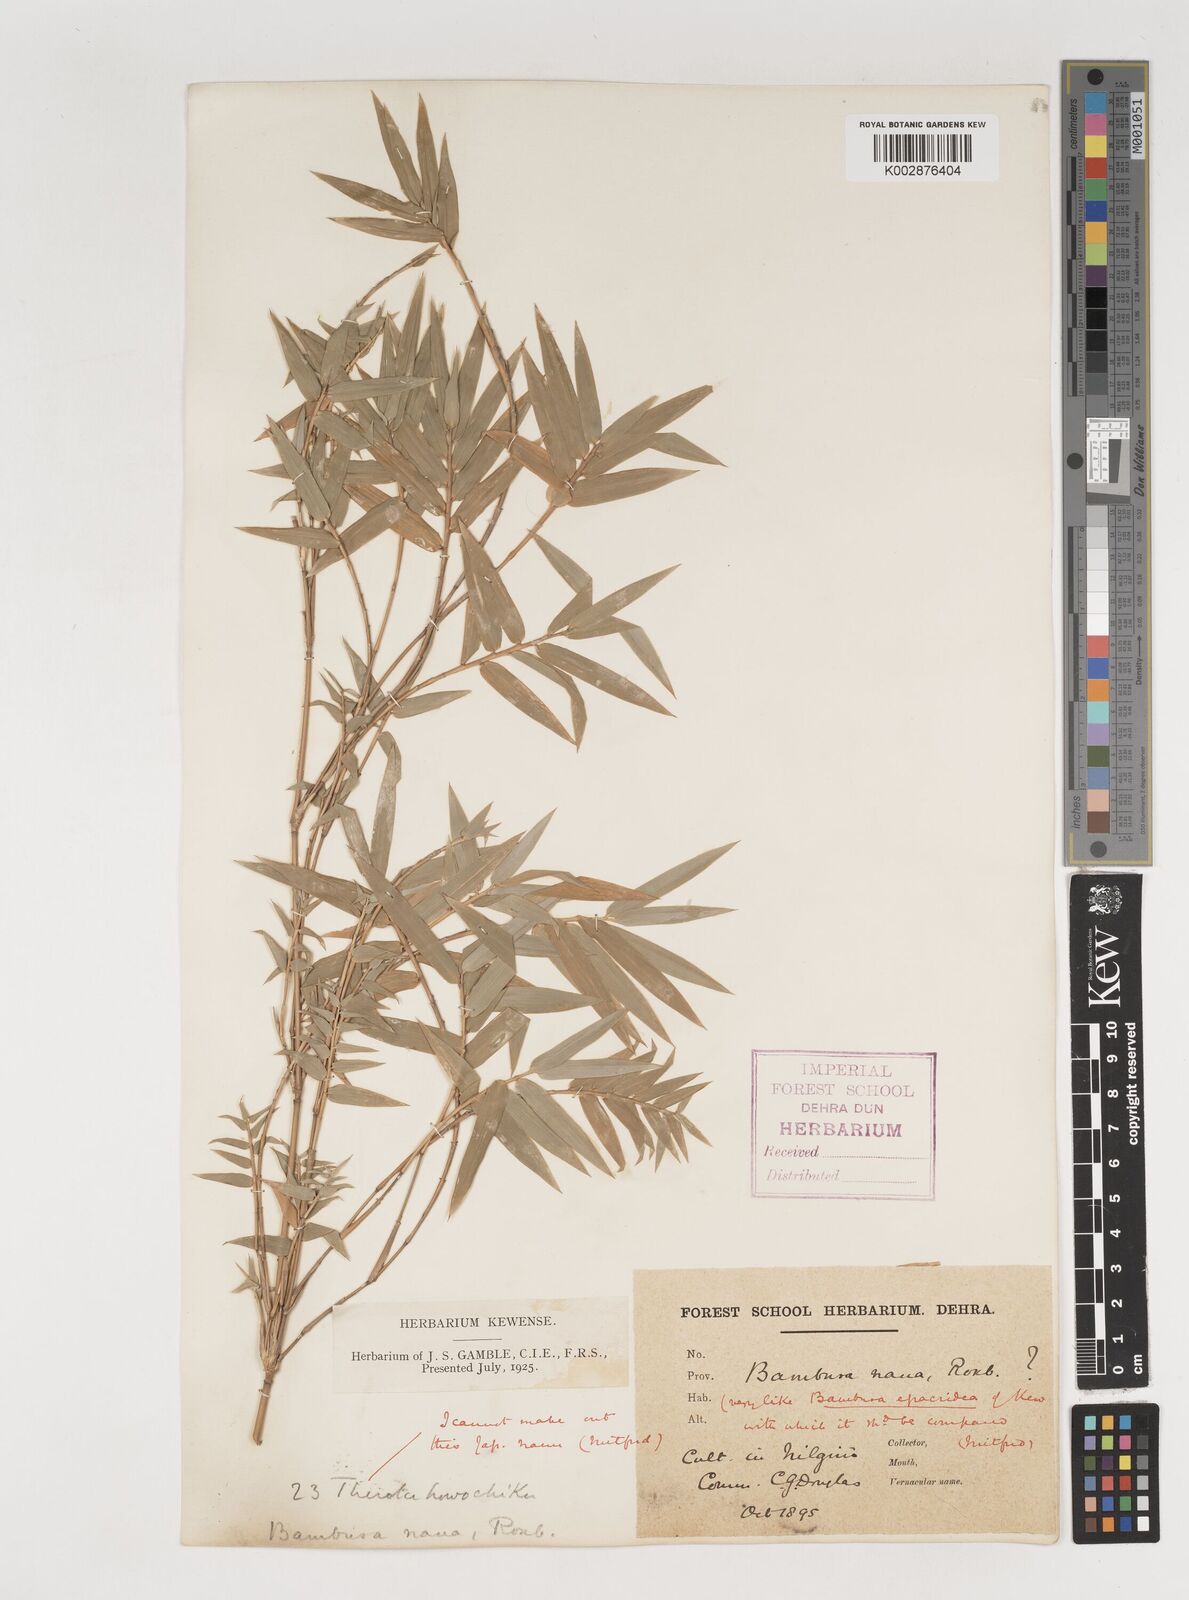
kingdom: Plantae
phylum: Tracheophyta
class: Liliopsida
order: Poales
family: Poaceae
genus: Bambusa
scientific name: Bambusa multiplex
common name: Hedge bamboo
